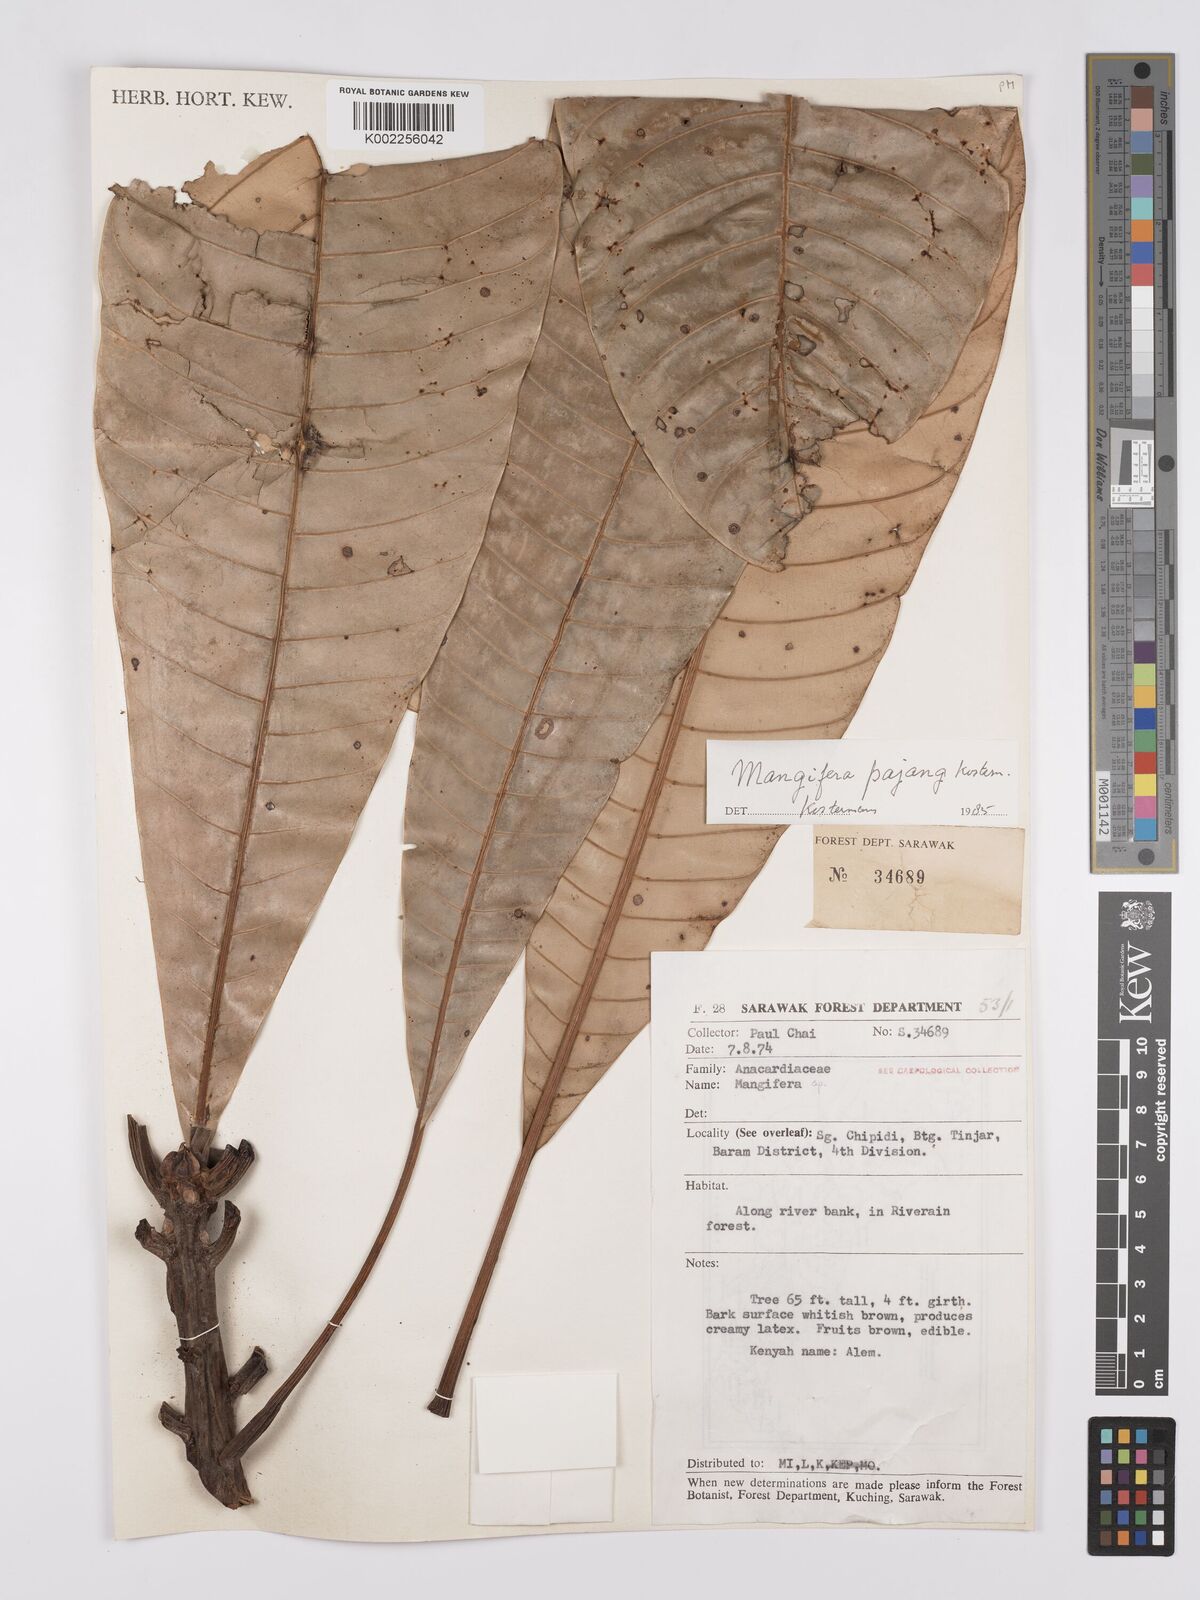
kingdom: Plantae
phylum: Tracheophyta
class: Magnoliopsida
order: Sapindales
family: Anacardiaceae
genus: Mangifera
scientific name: Mangifera pajang
